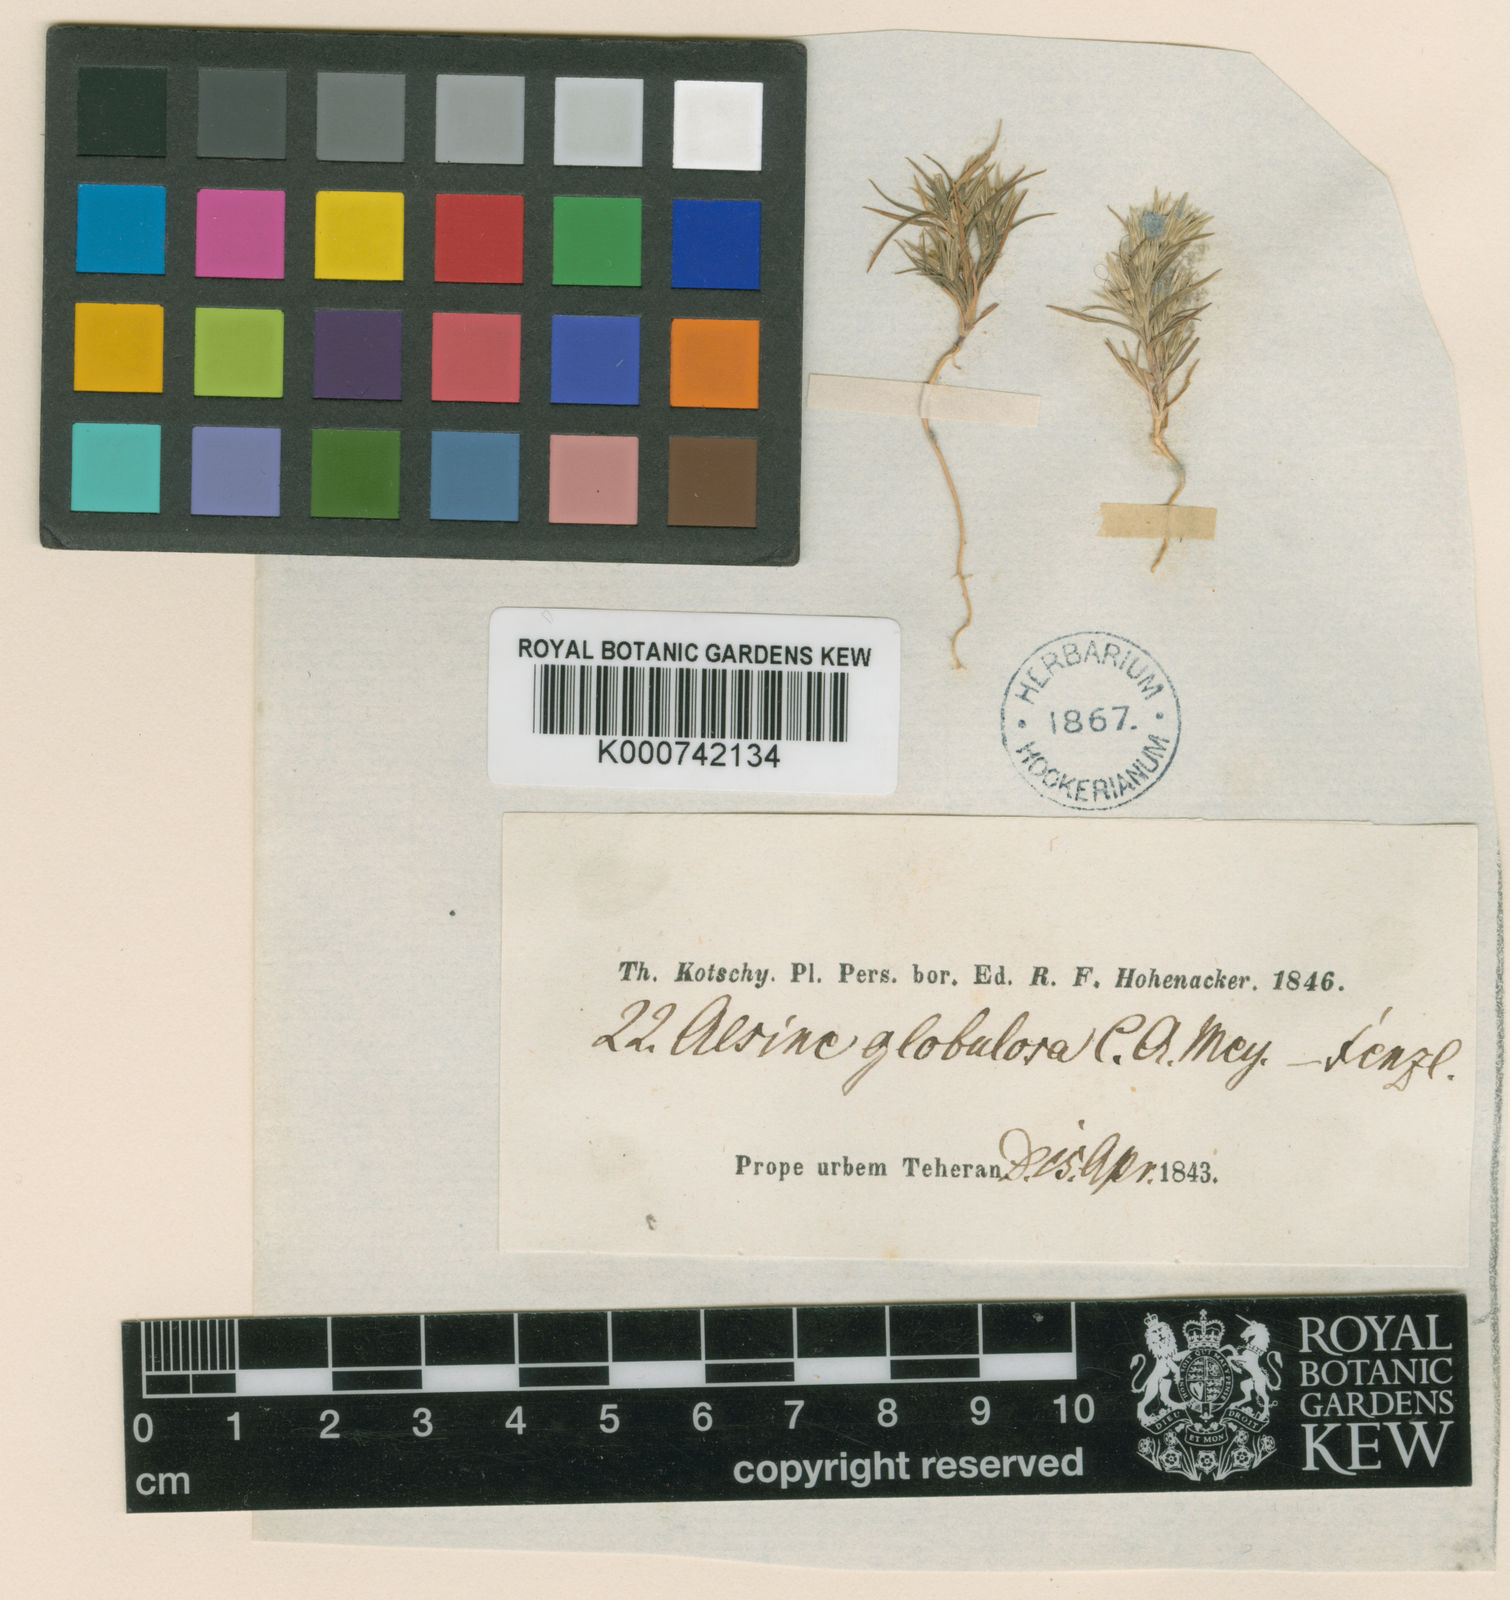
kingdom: Plantae
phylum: Tracheophyta
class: Magnoliopsida
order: Caryophyllales
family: Caryophyllaceae
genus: Minuartia
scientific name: Minuartia meyeri
